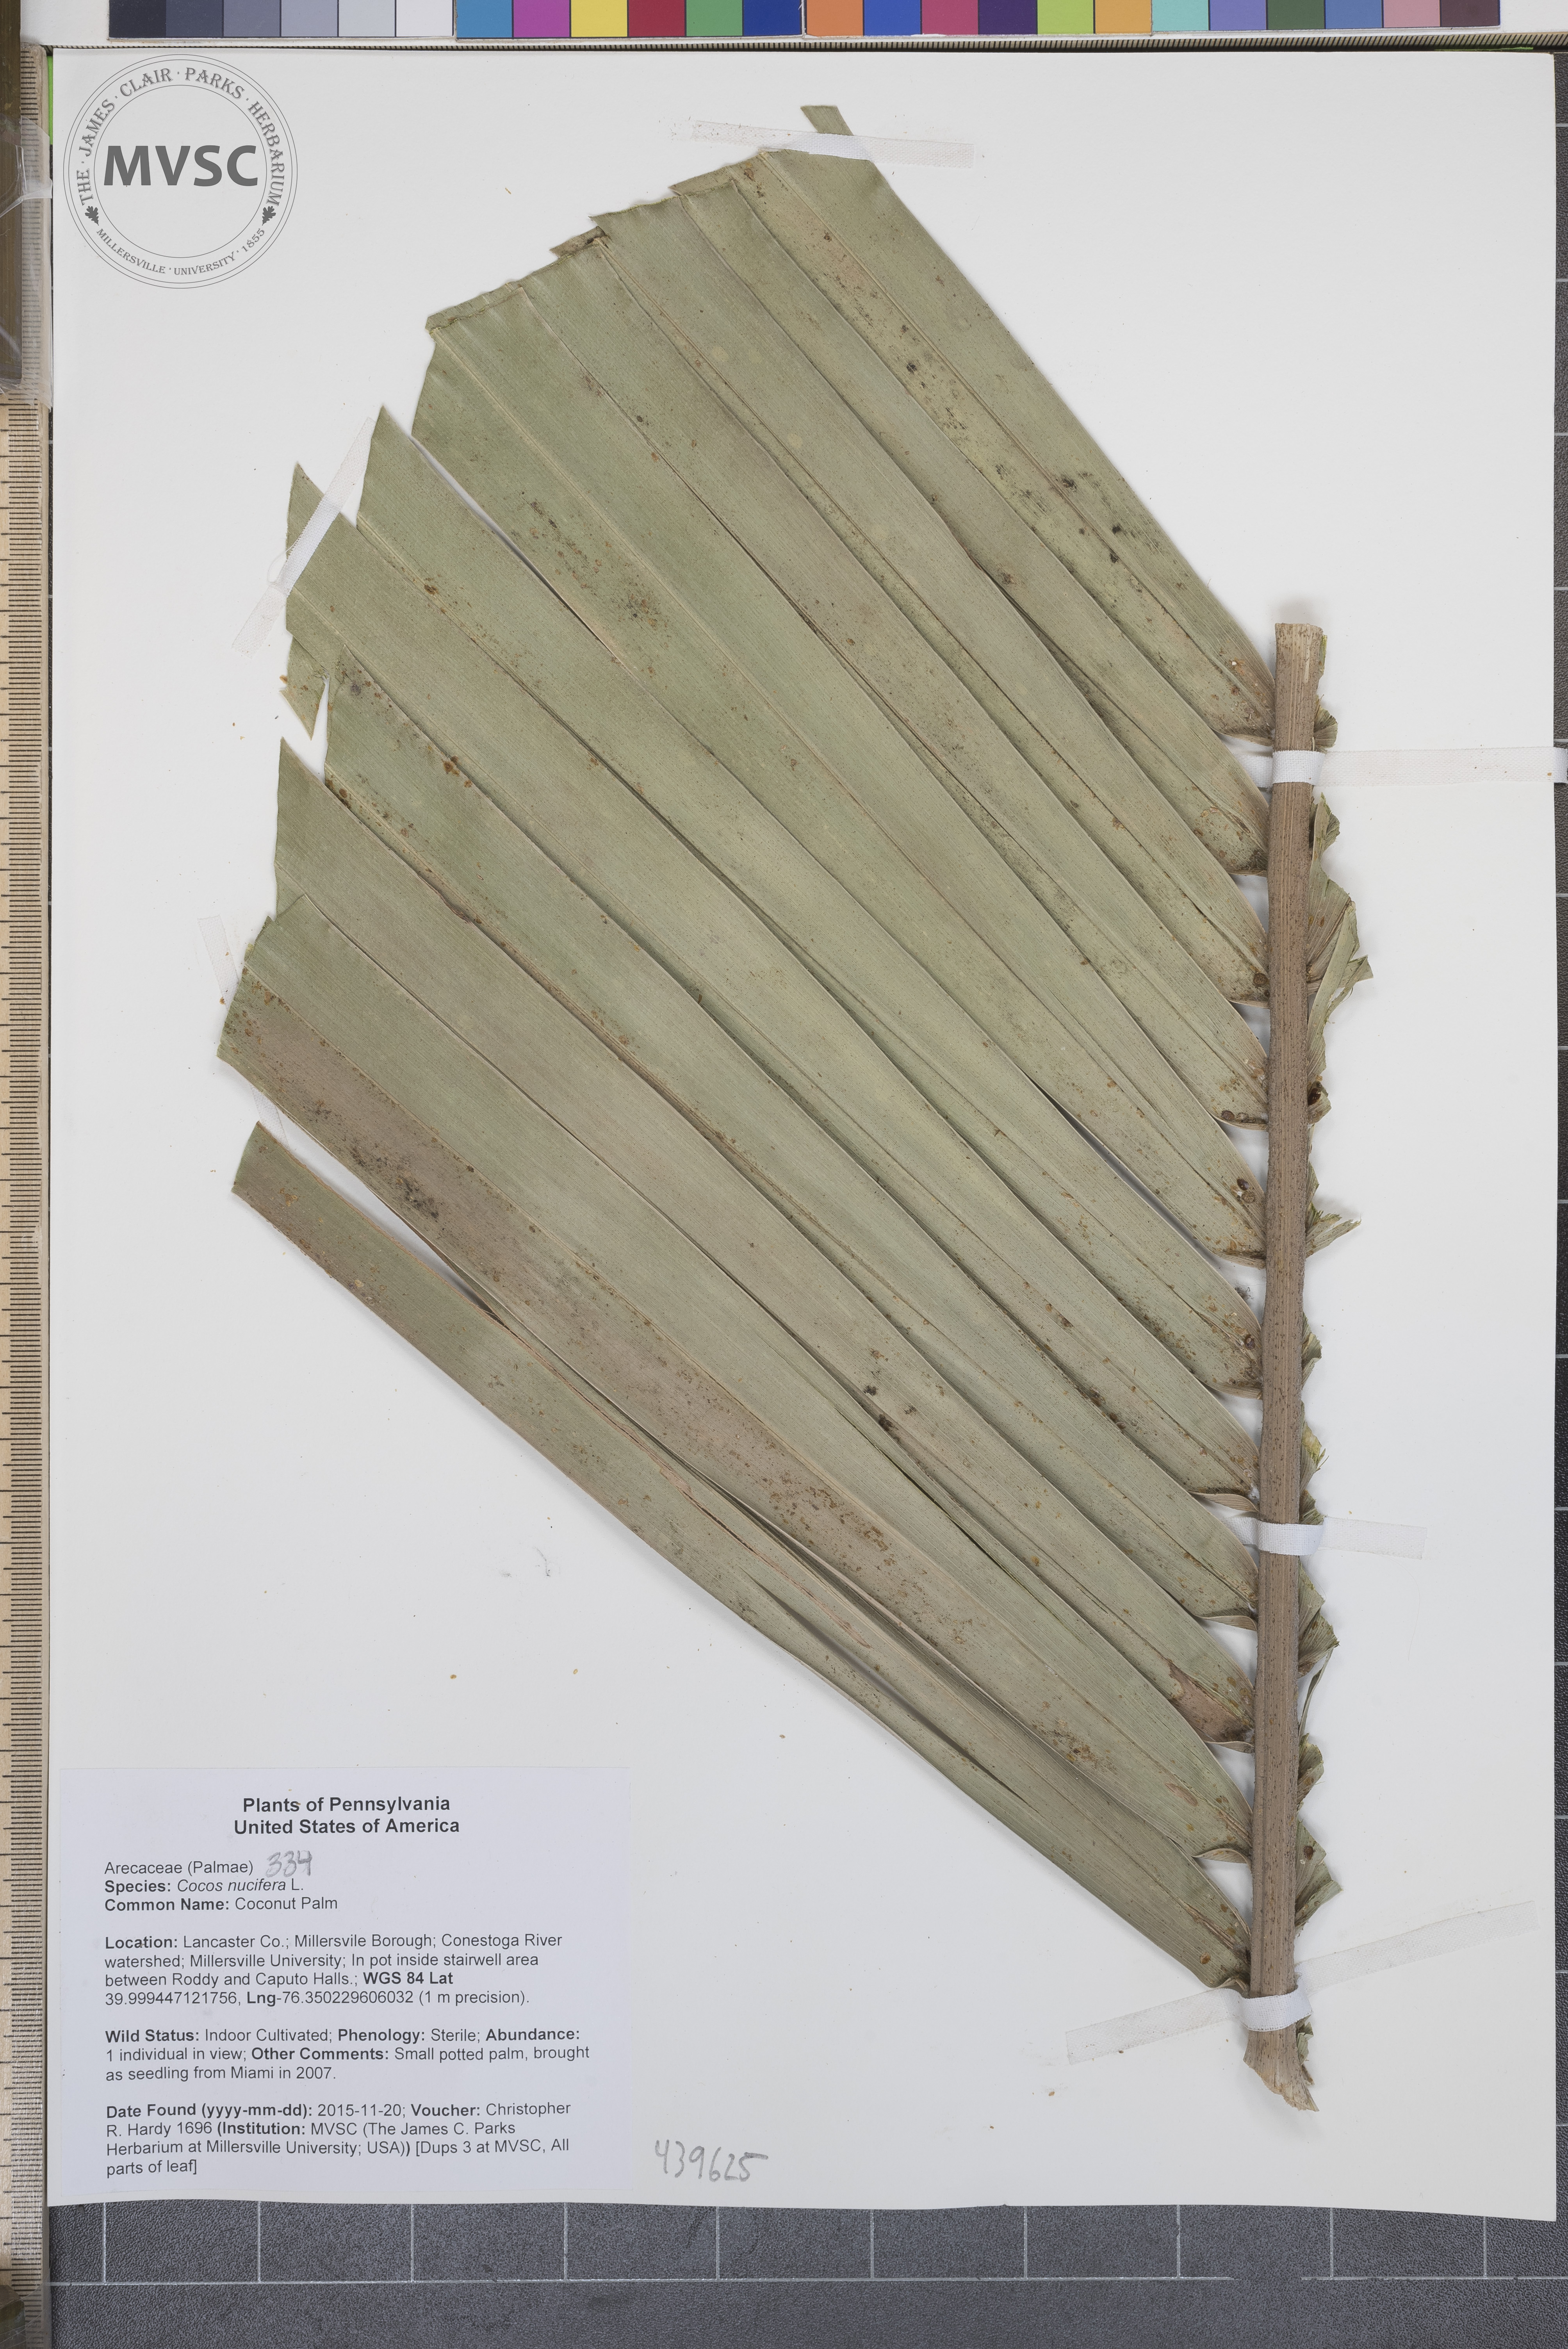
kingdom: Plantae
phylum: Tracheophyta
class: Liliopsida
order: Arecales
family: Arecaceae
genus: Cocos
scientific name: Cocos nucifera
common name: Coconut palm
